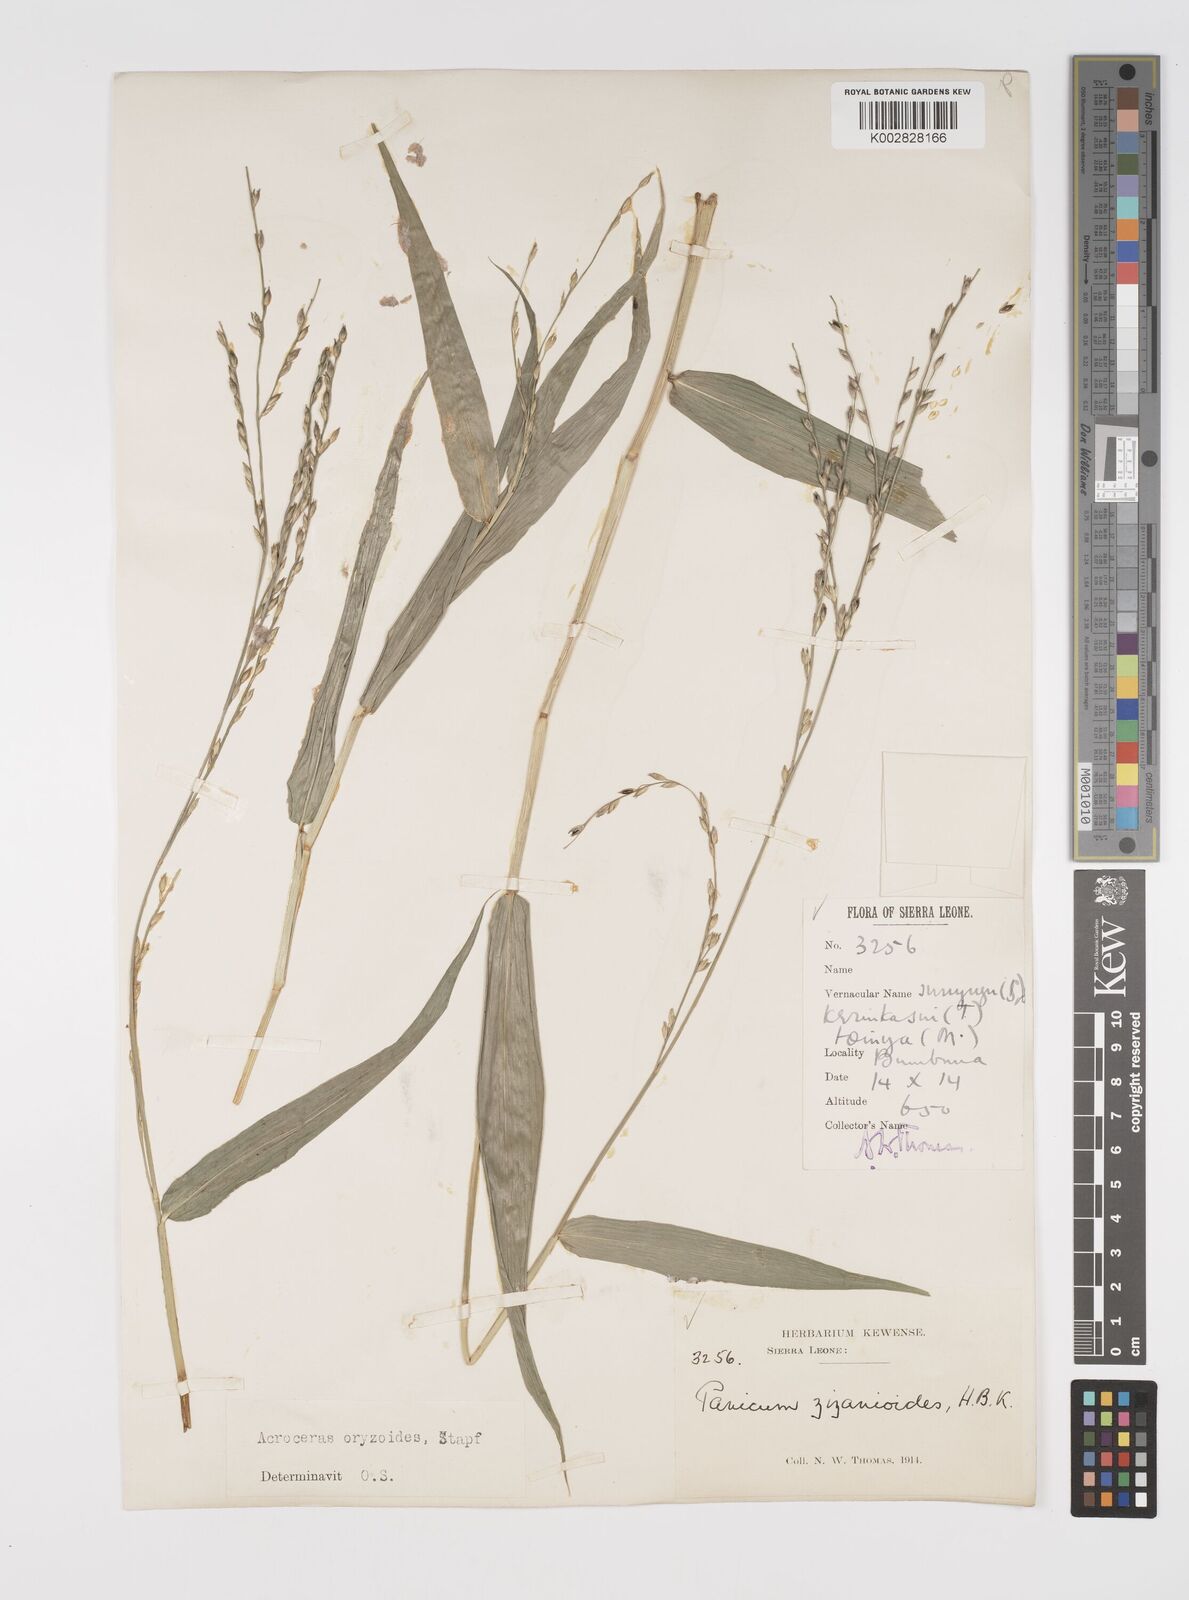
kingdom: Plantae
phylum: Tracheophyta
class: Liliopsida
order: Poales
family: Poaceae
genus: Acroceras
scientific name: Acroceras zizanioides
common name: Oat grass
